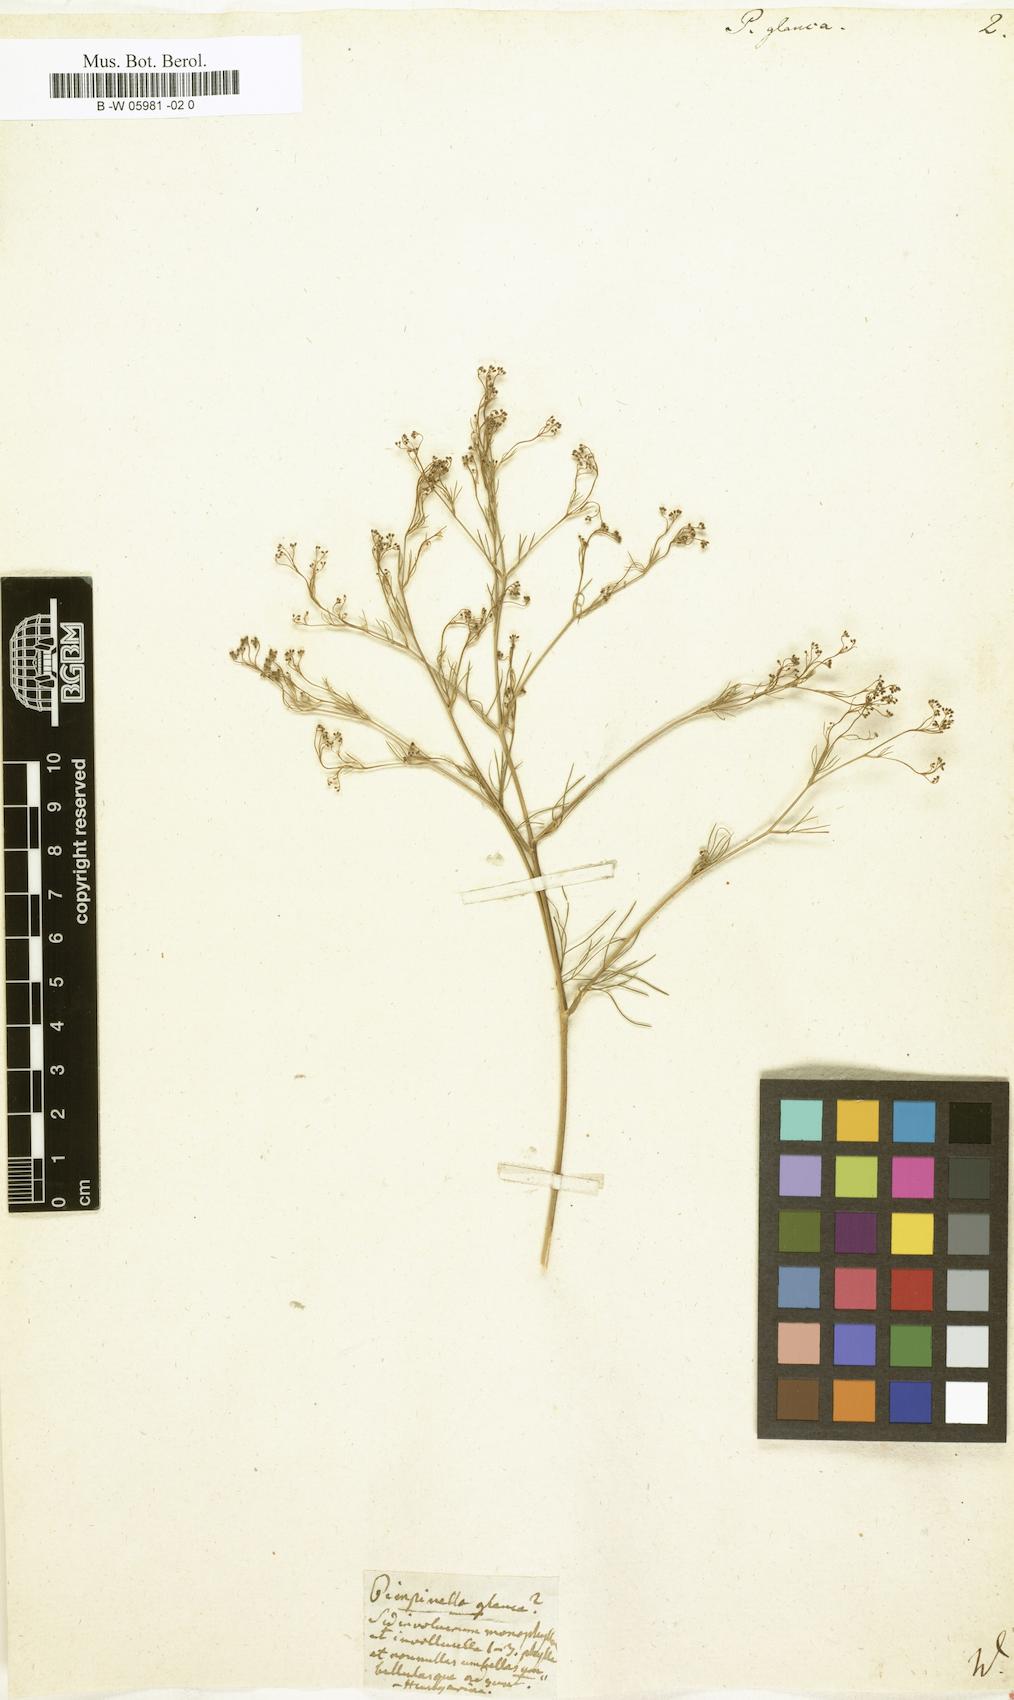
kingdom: Plantae
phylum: Tracheophyta
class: Magnoliopsida
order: Apiales
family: Apiaceae
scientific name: Apiaceae
